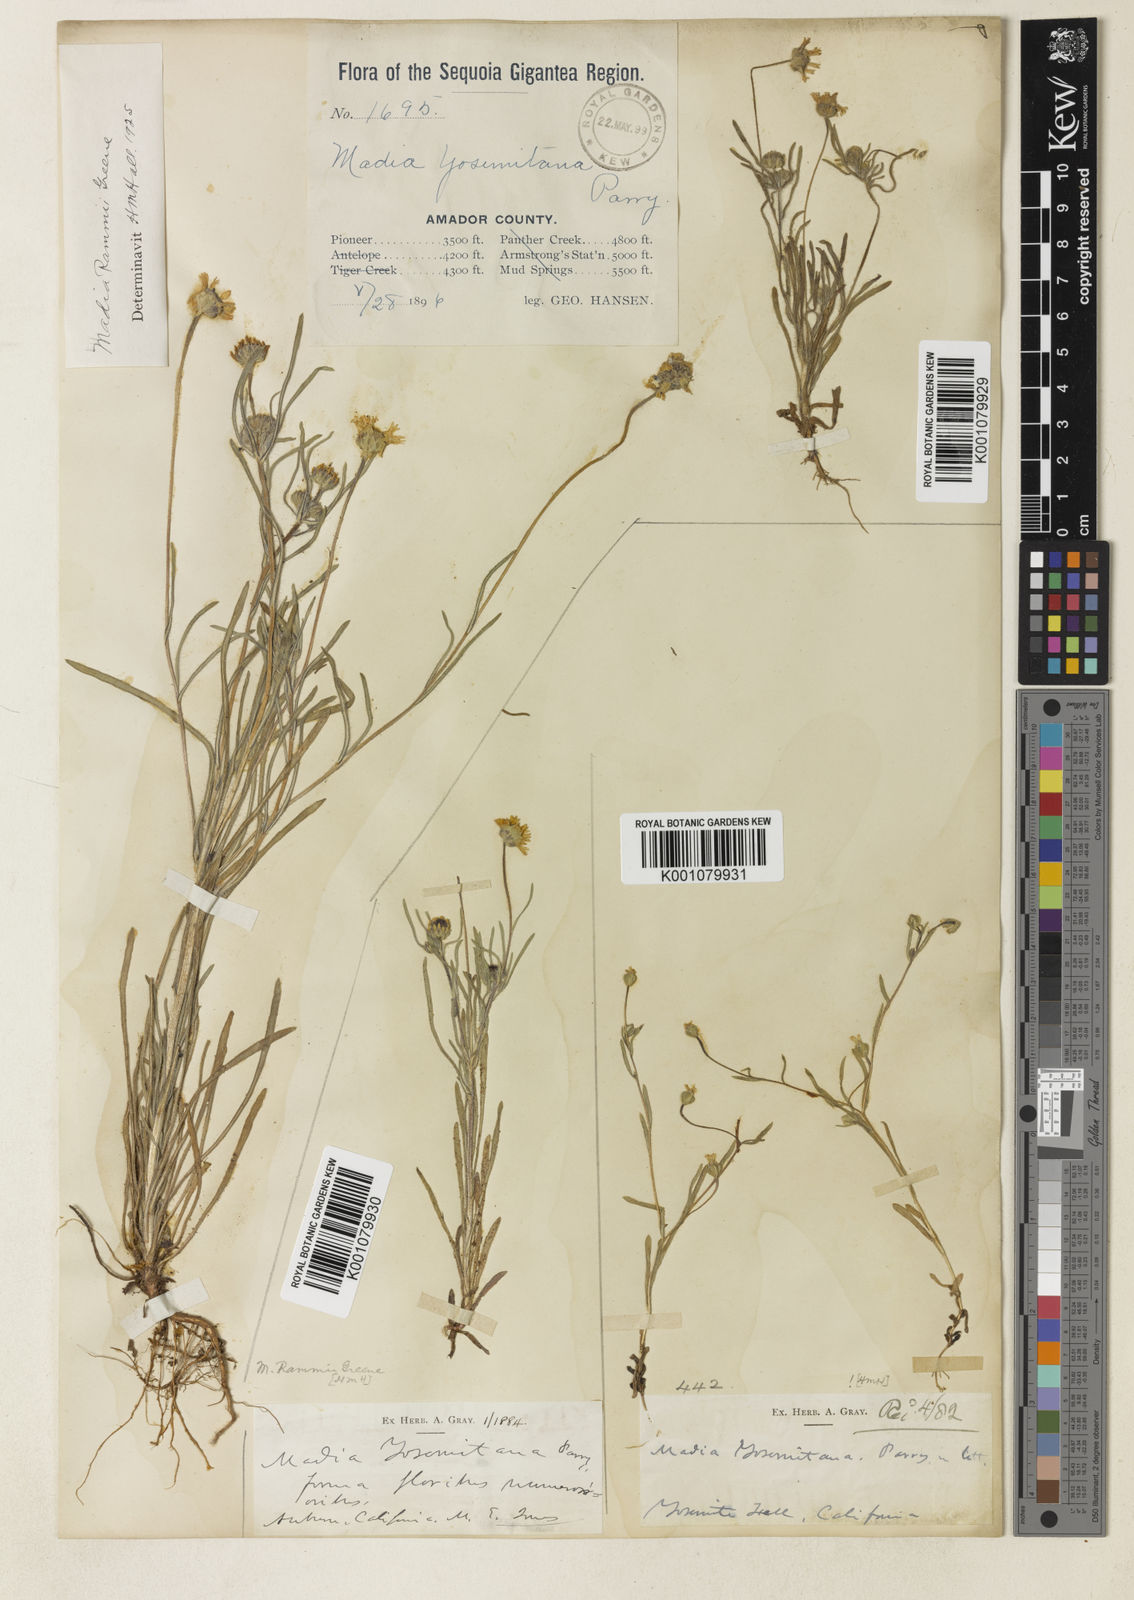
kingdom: Plantae
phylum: Tracheophyta
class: Magnoliopsida
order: Asterales
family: Asteraceae
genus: Jensia
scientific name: Jensia yosemitana
